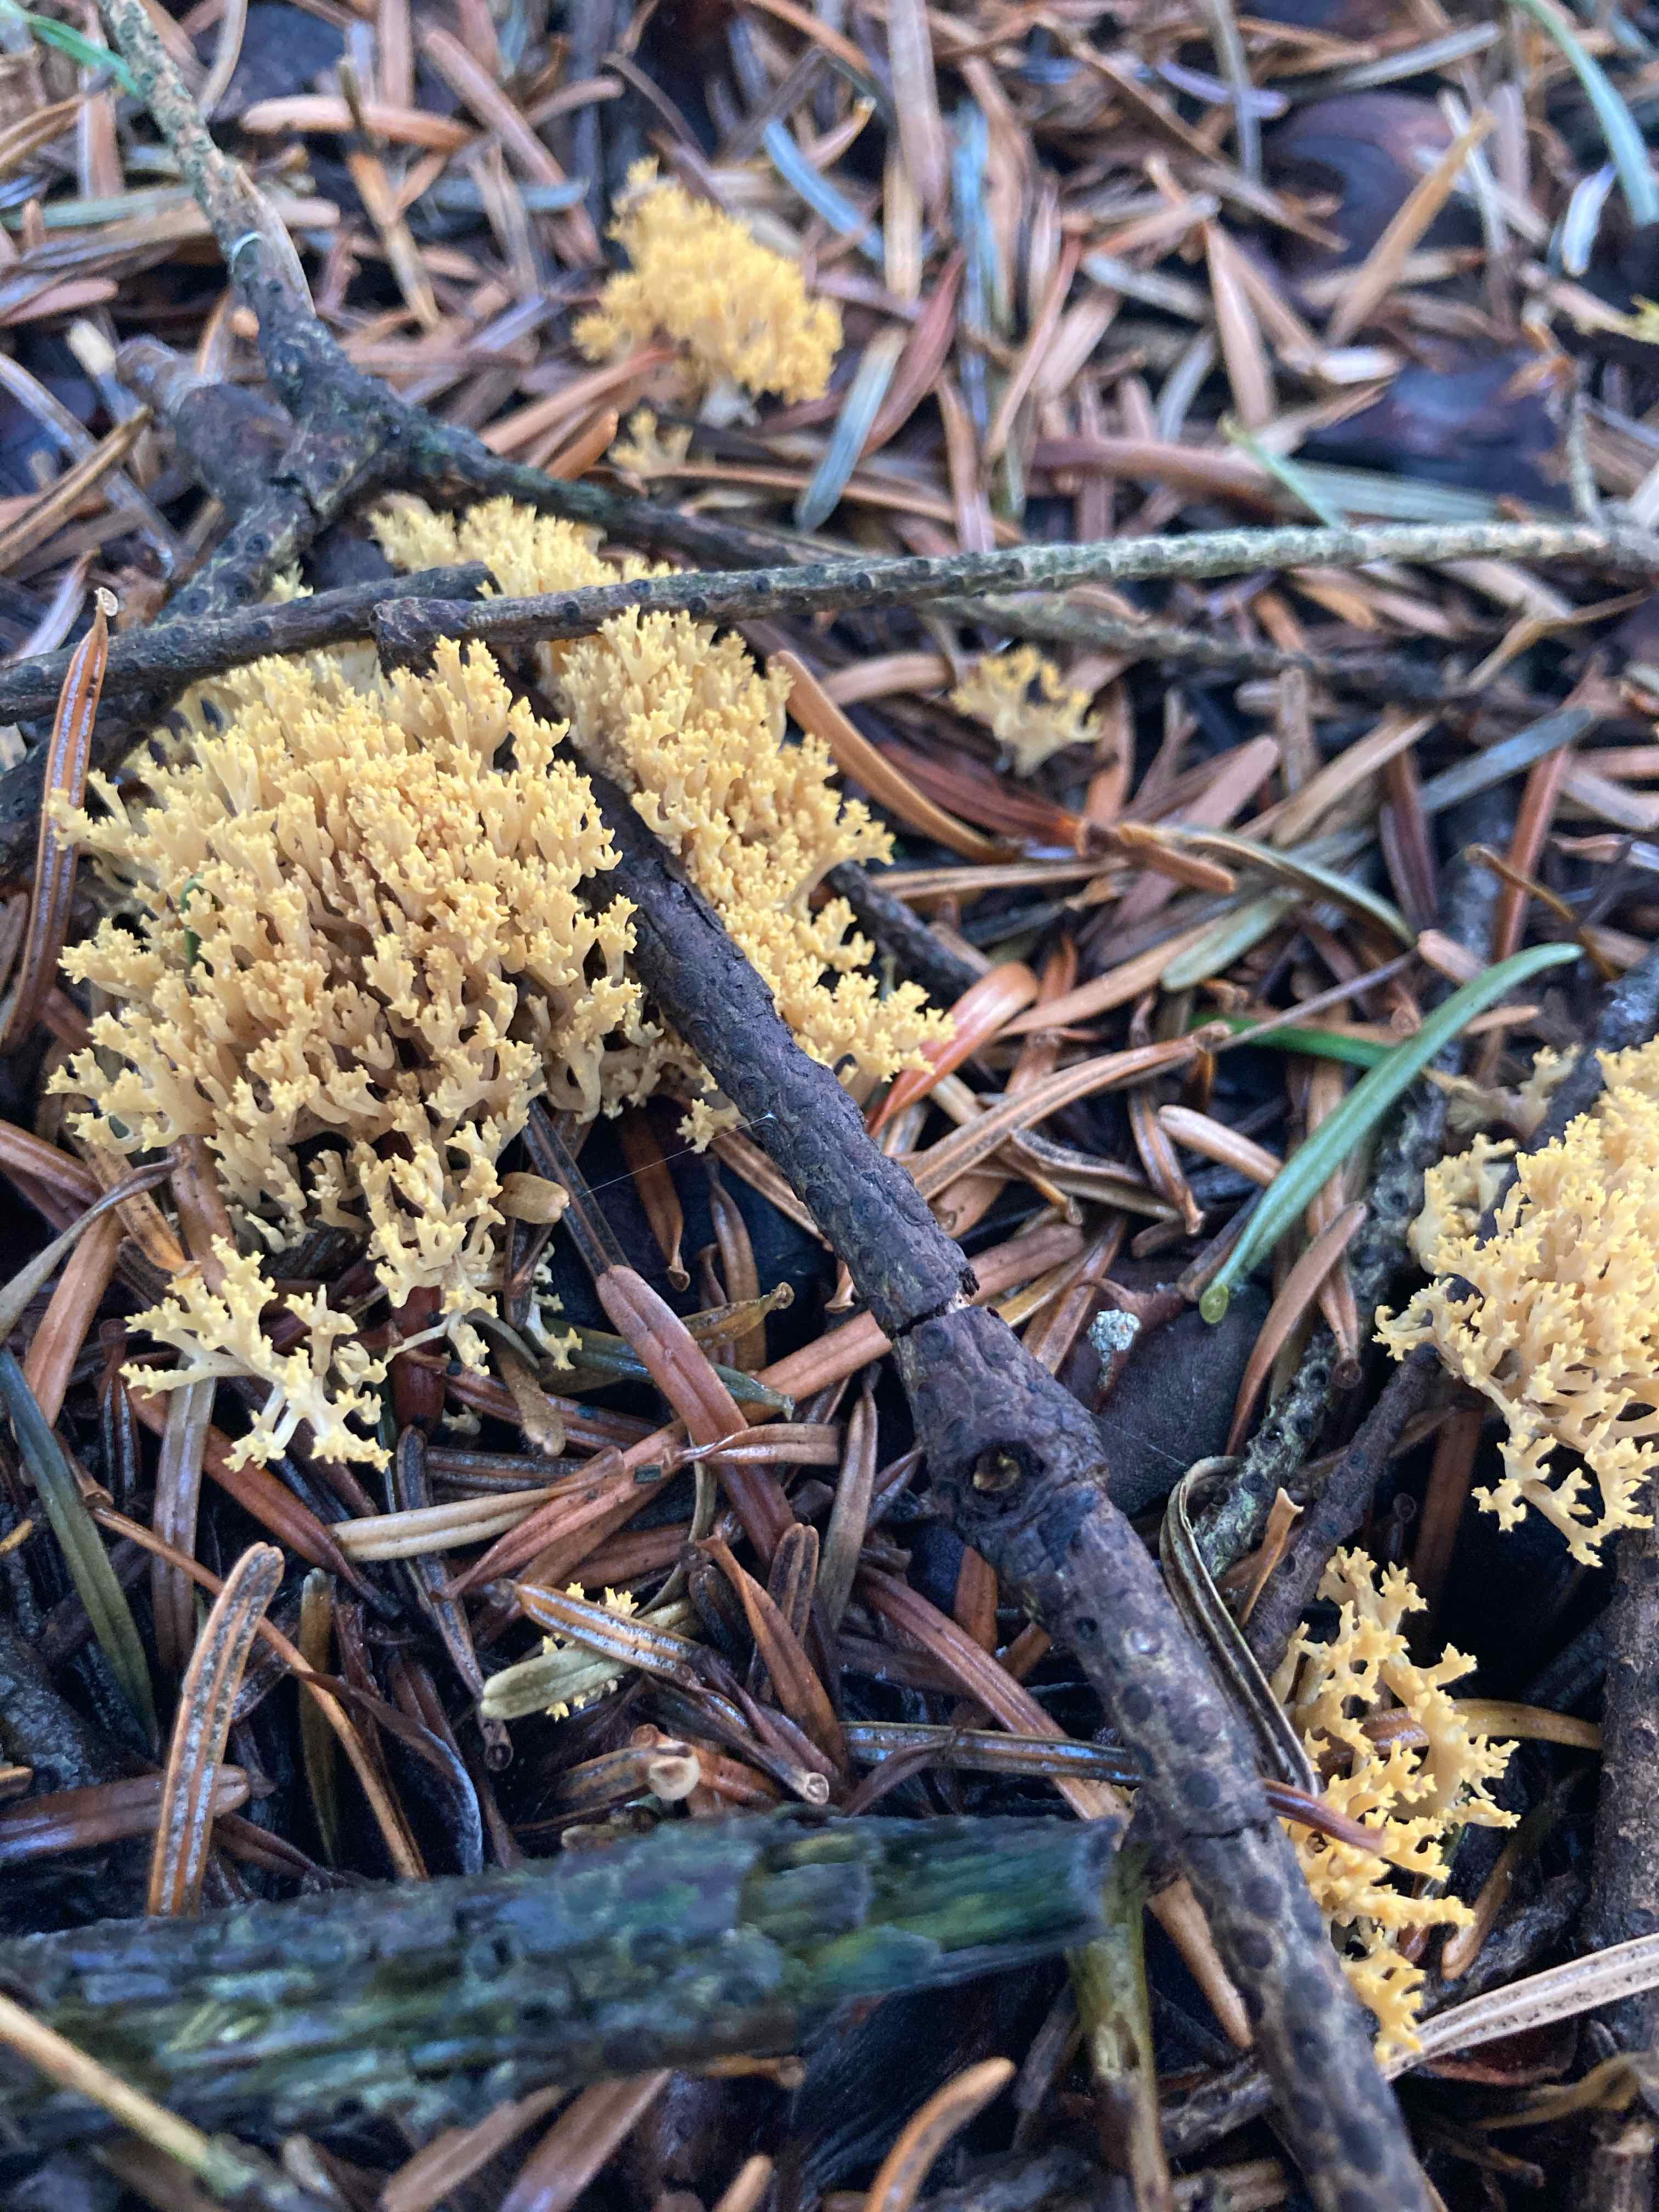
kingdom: Fungi
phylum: Basidiomycota
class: Agaricomycetes
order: Gomphales
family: Gomphaceae
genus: Phaeoclavulina
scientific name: Phaeoclavulina
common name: koralsvamp
